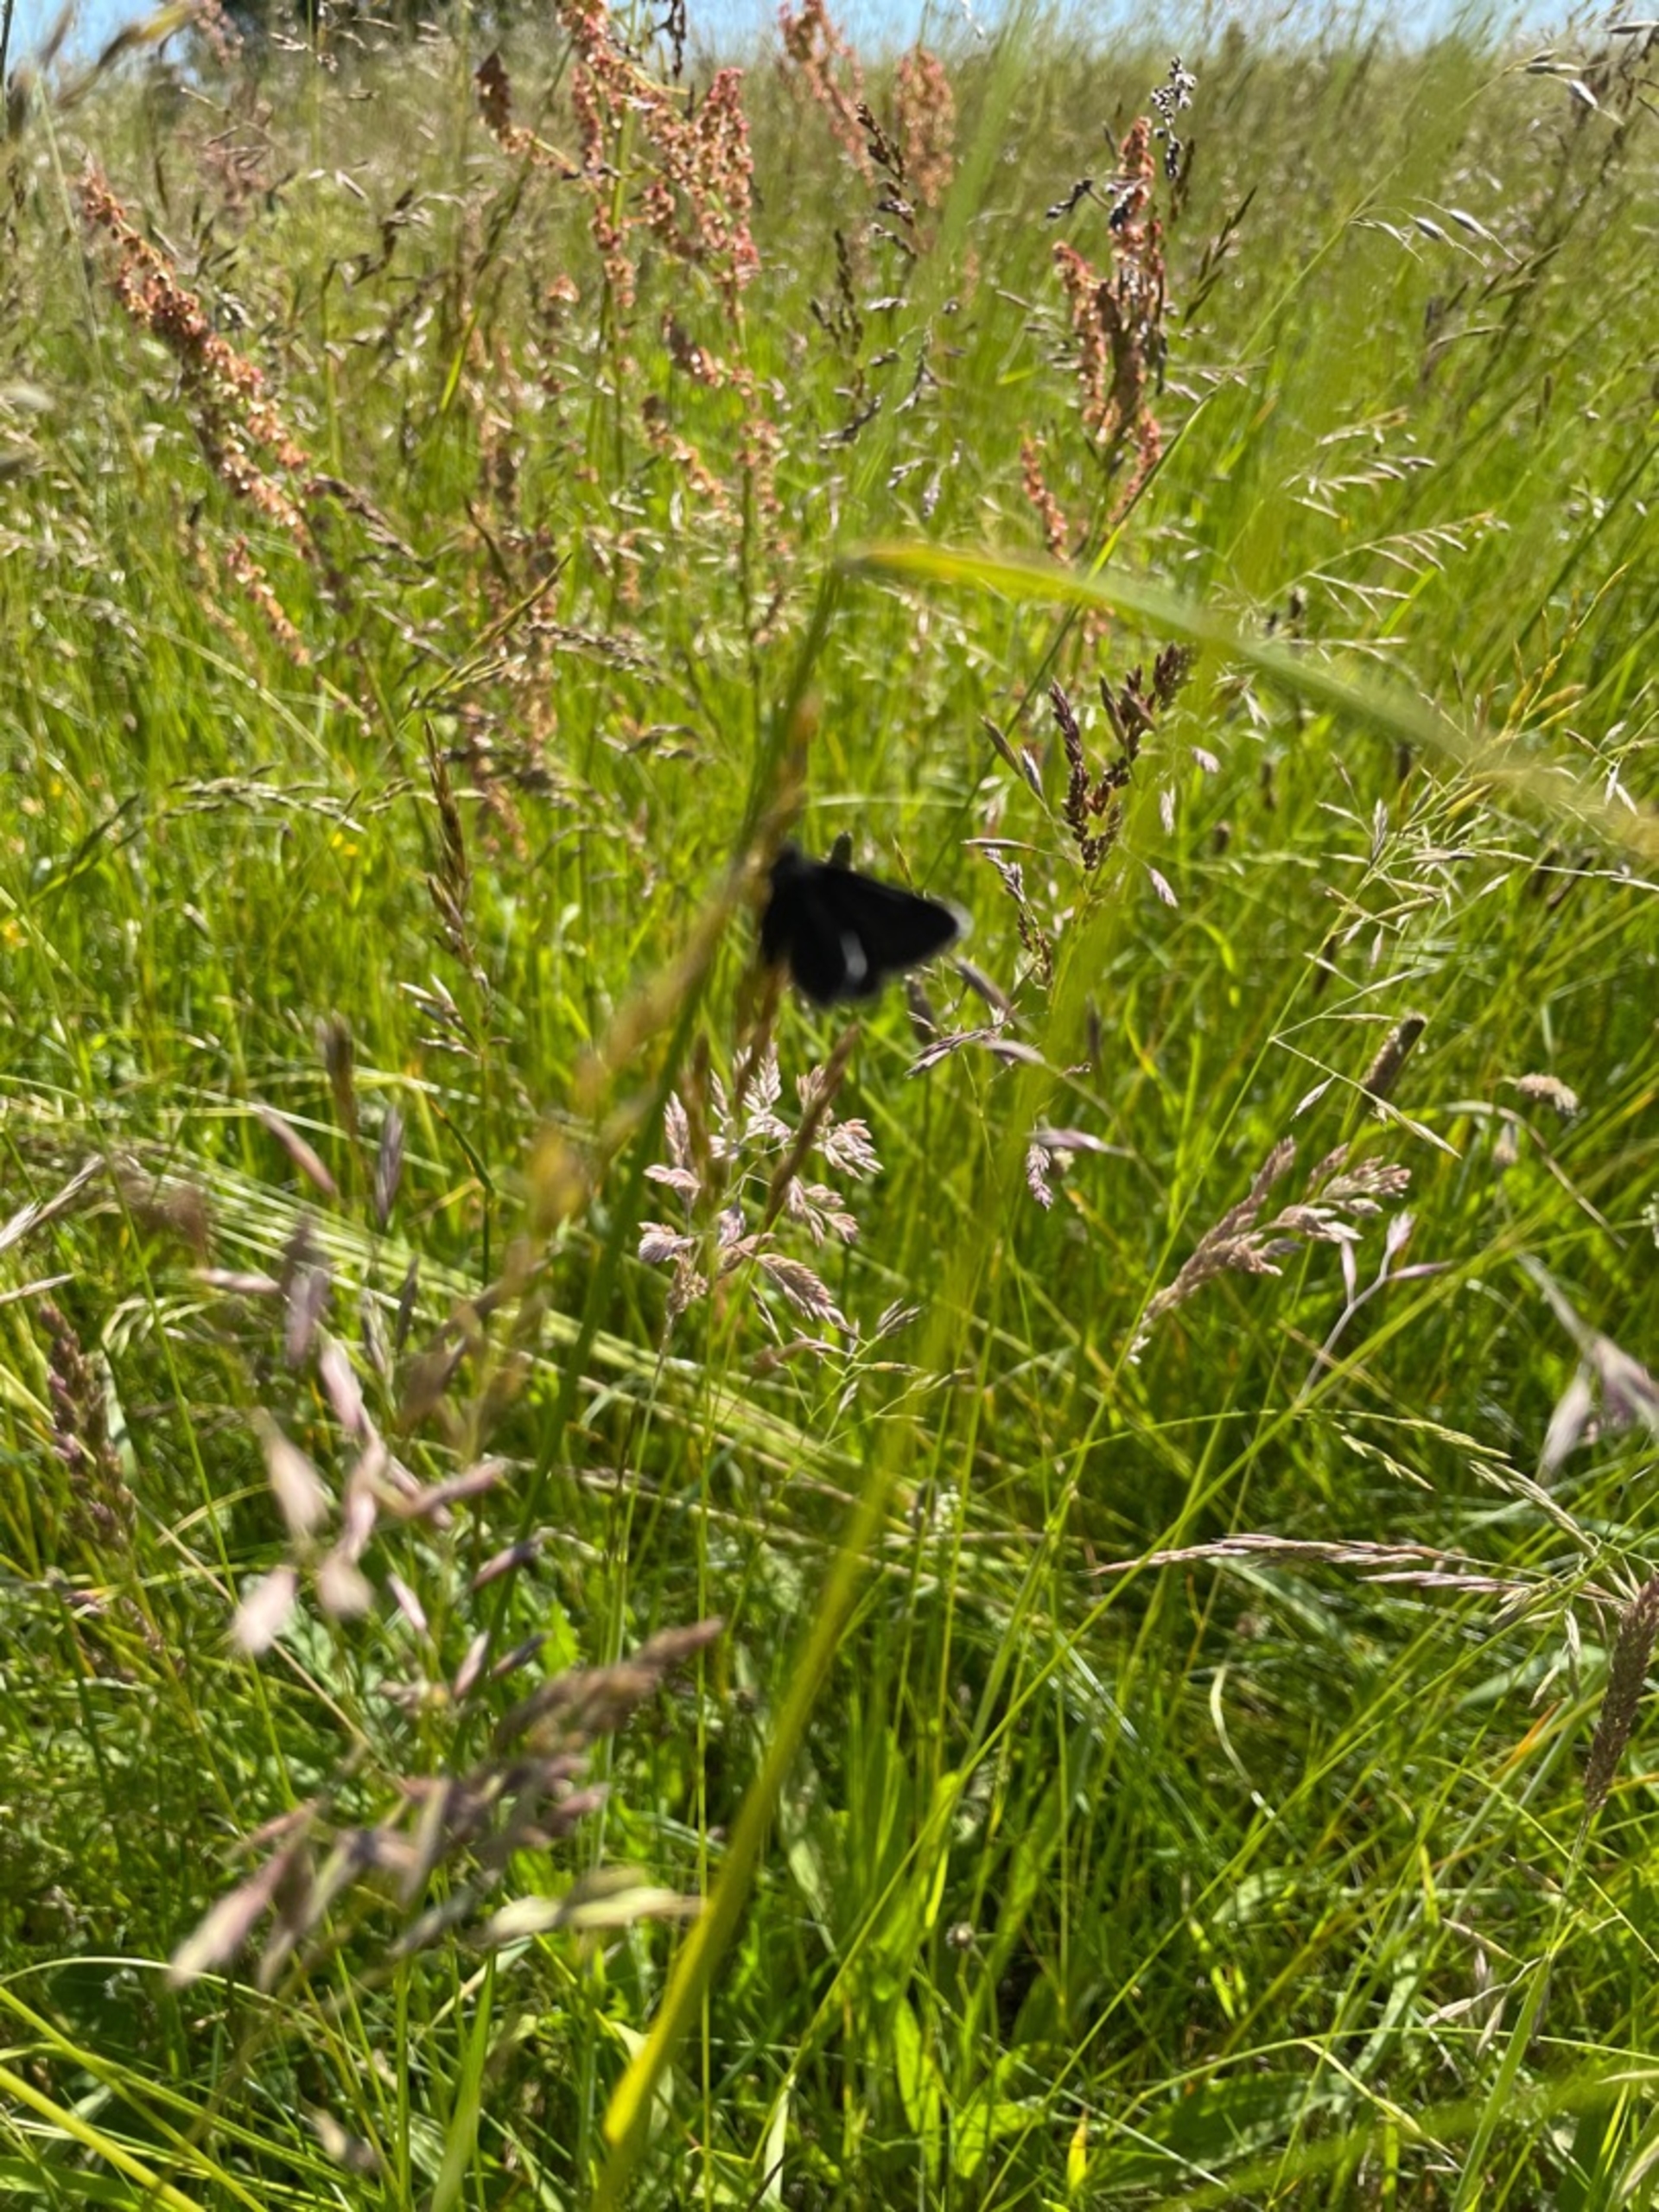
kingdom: Animalia
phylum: Arthropoda
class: Insecta
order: Lepidoptera
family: Geometridae
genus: Odezia
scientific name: Odezia atrata
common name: Sort måler
